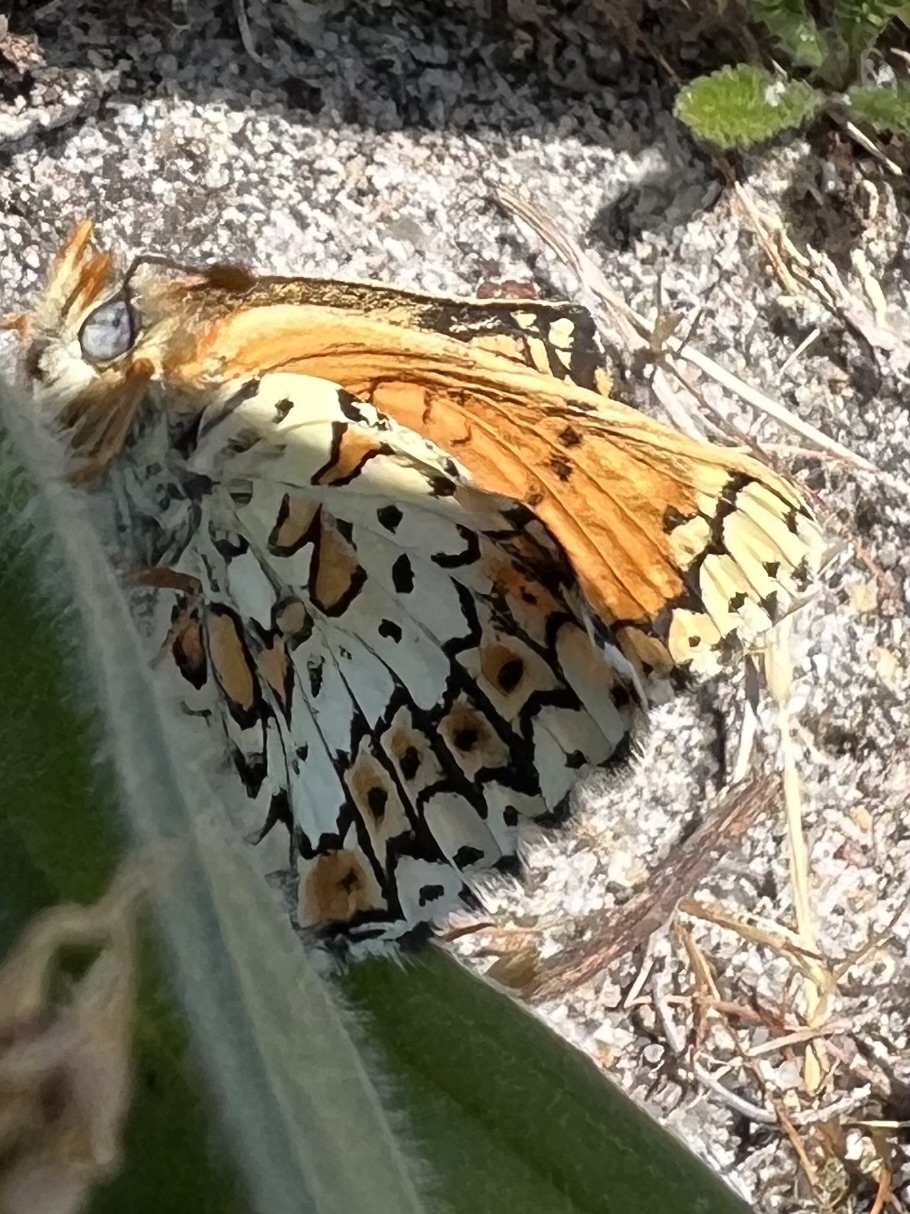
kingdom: Animalia
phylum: Arthropoda
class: Insecta
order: Lepidoptera
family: Nymphalidae
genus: Melitaea
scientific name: Melitaea cinxia
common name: Okkergul pletvinge
